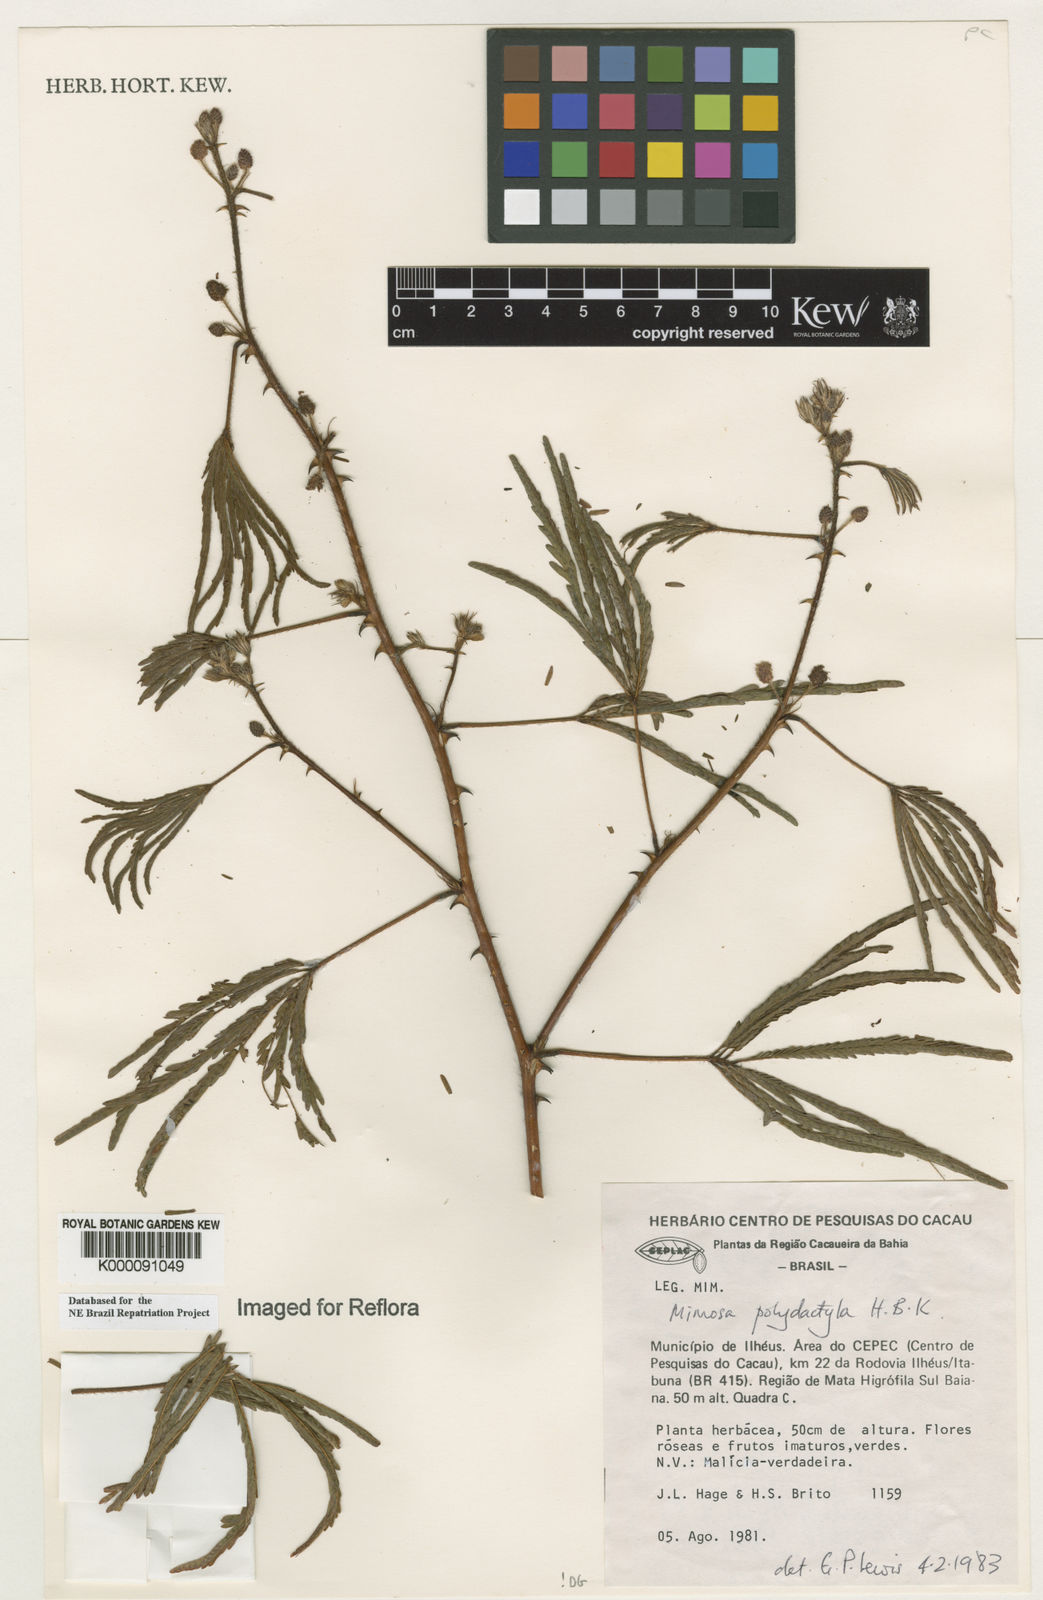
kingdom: Plantae
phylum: Tracheophyta
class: Magnoliopsida
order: Fabales
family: Fabaceae
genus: Mimosa
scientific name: Mimosa
